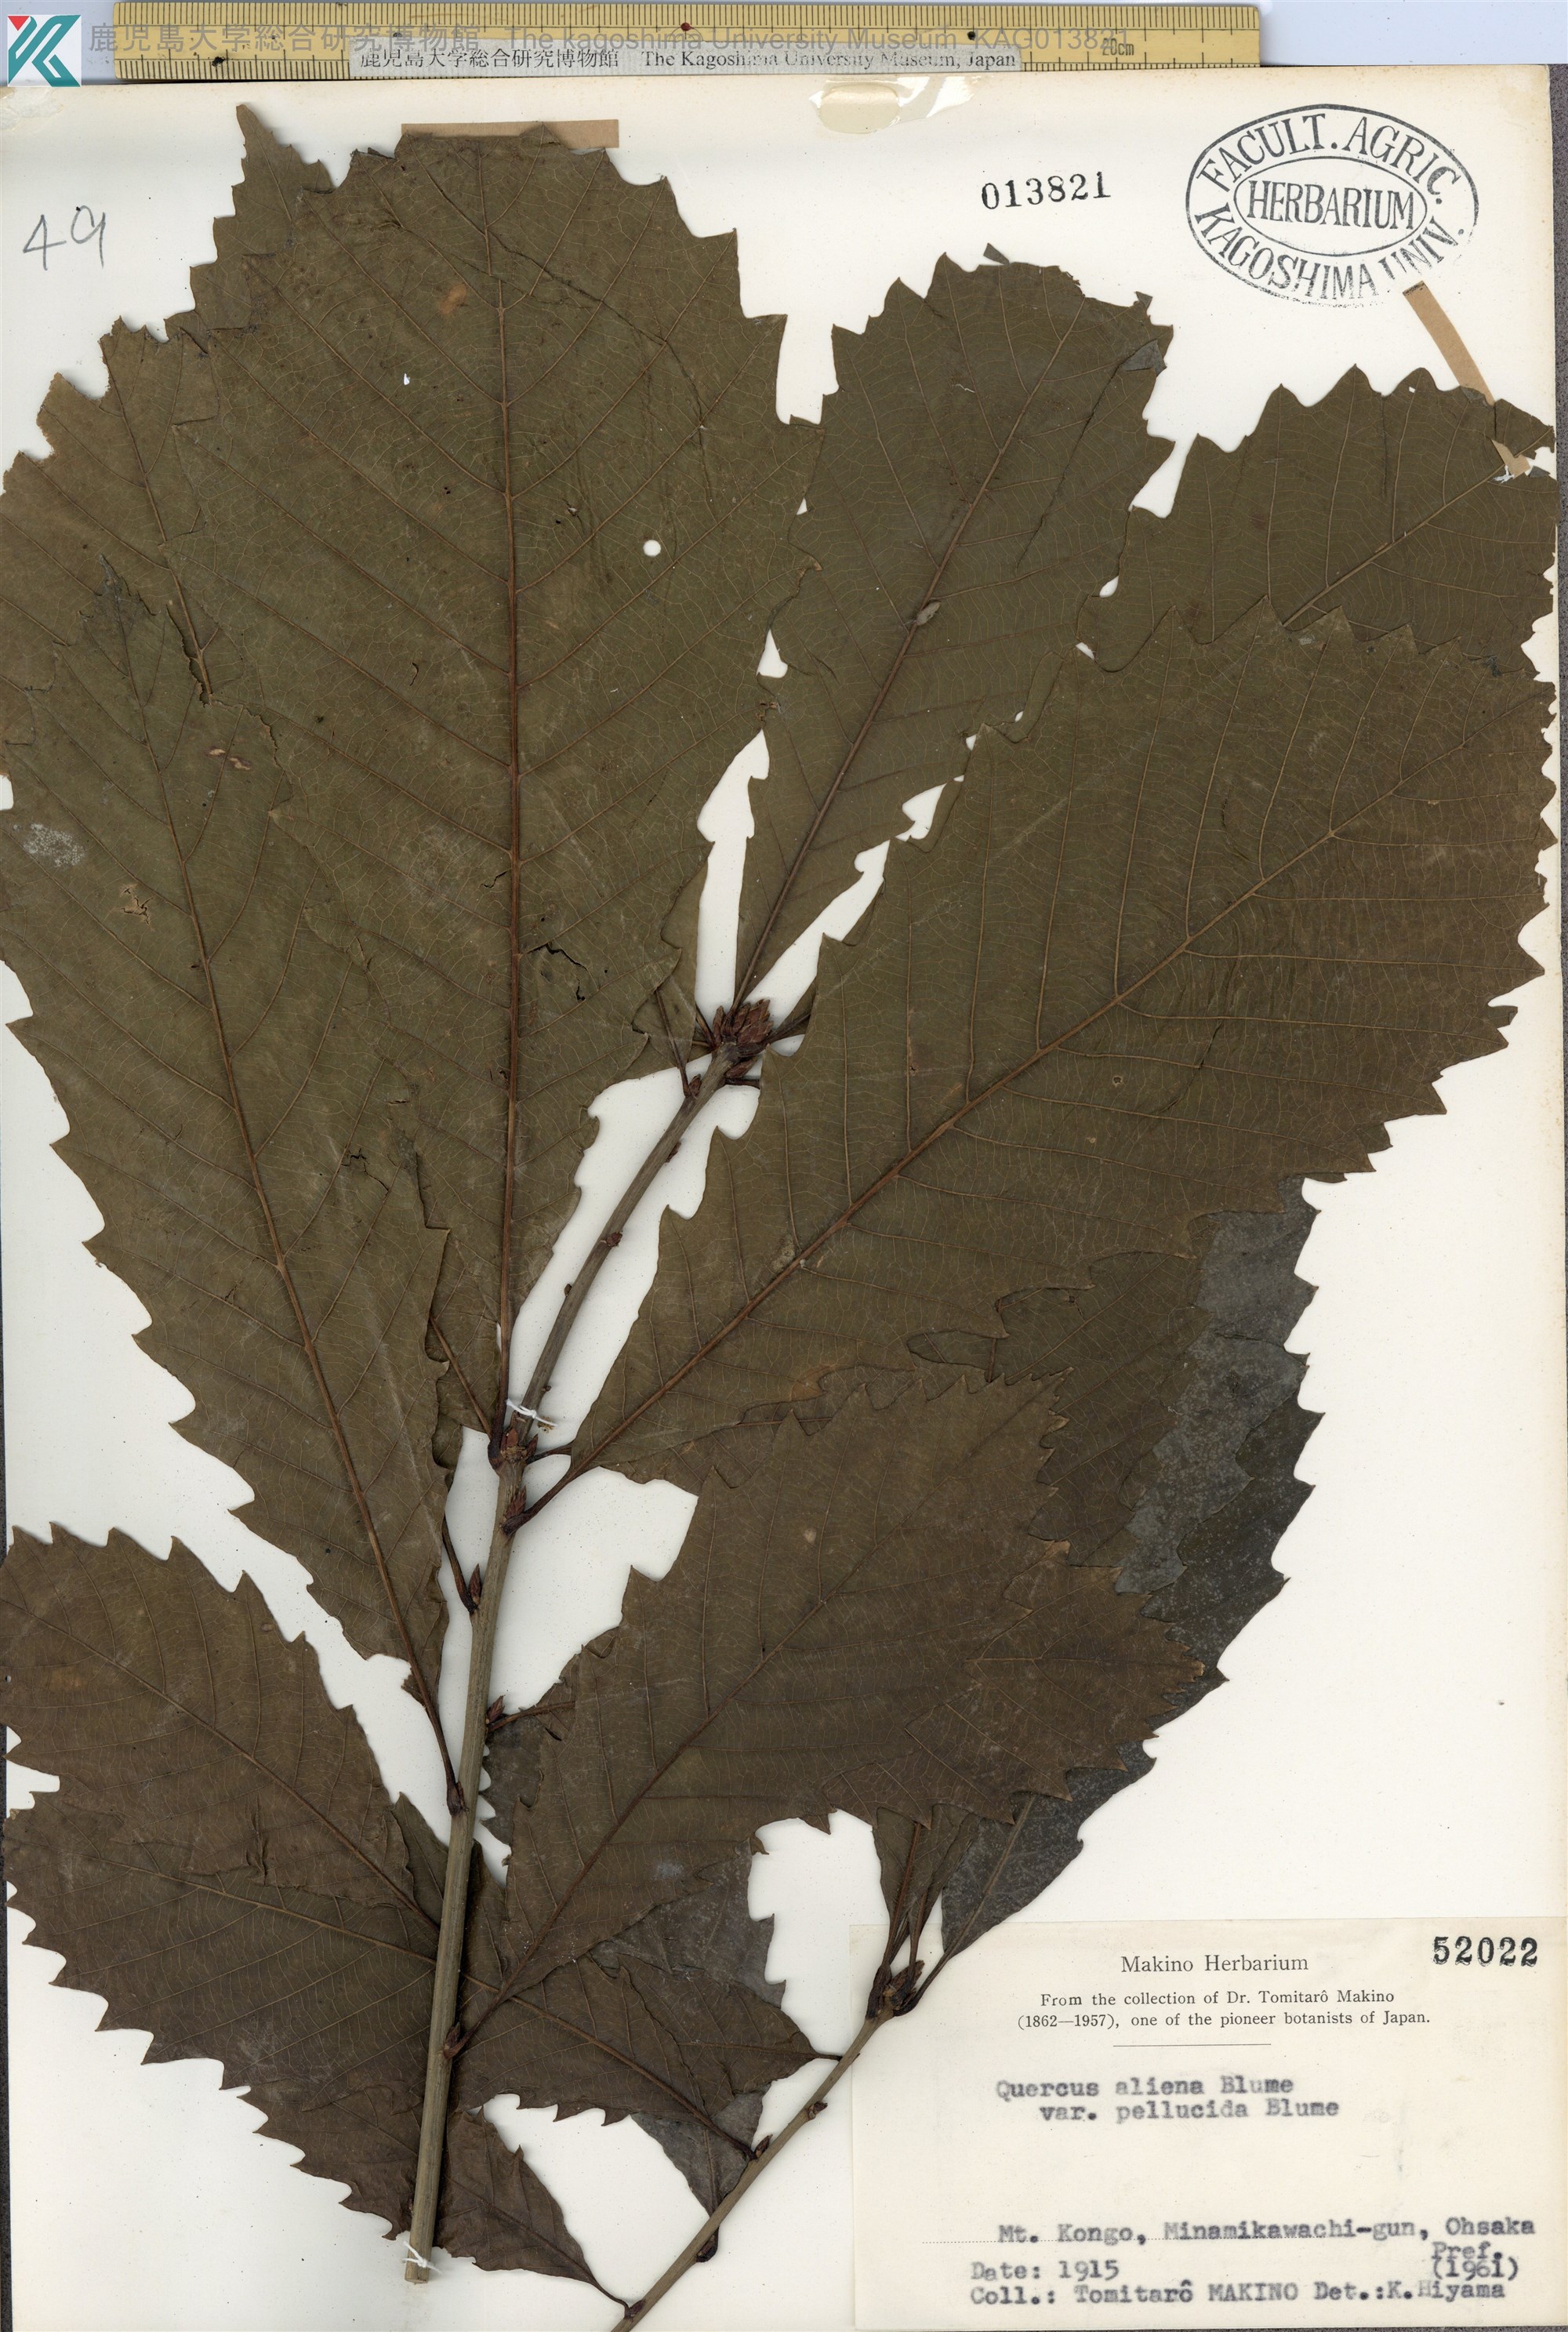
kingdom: Plantae
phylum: Tracheophyta
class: Magnoliopsida
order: Fagales
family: Fagaceae
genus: Quercus
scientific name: Quercus aliena
